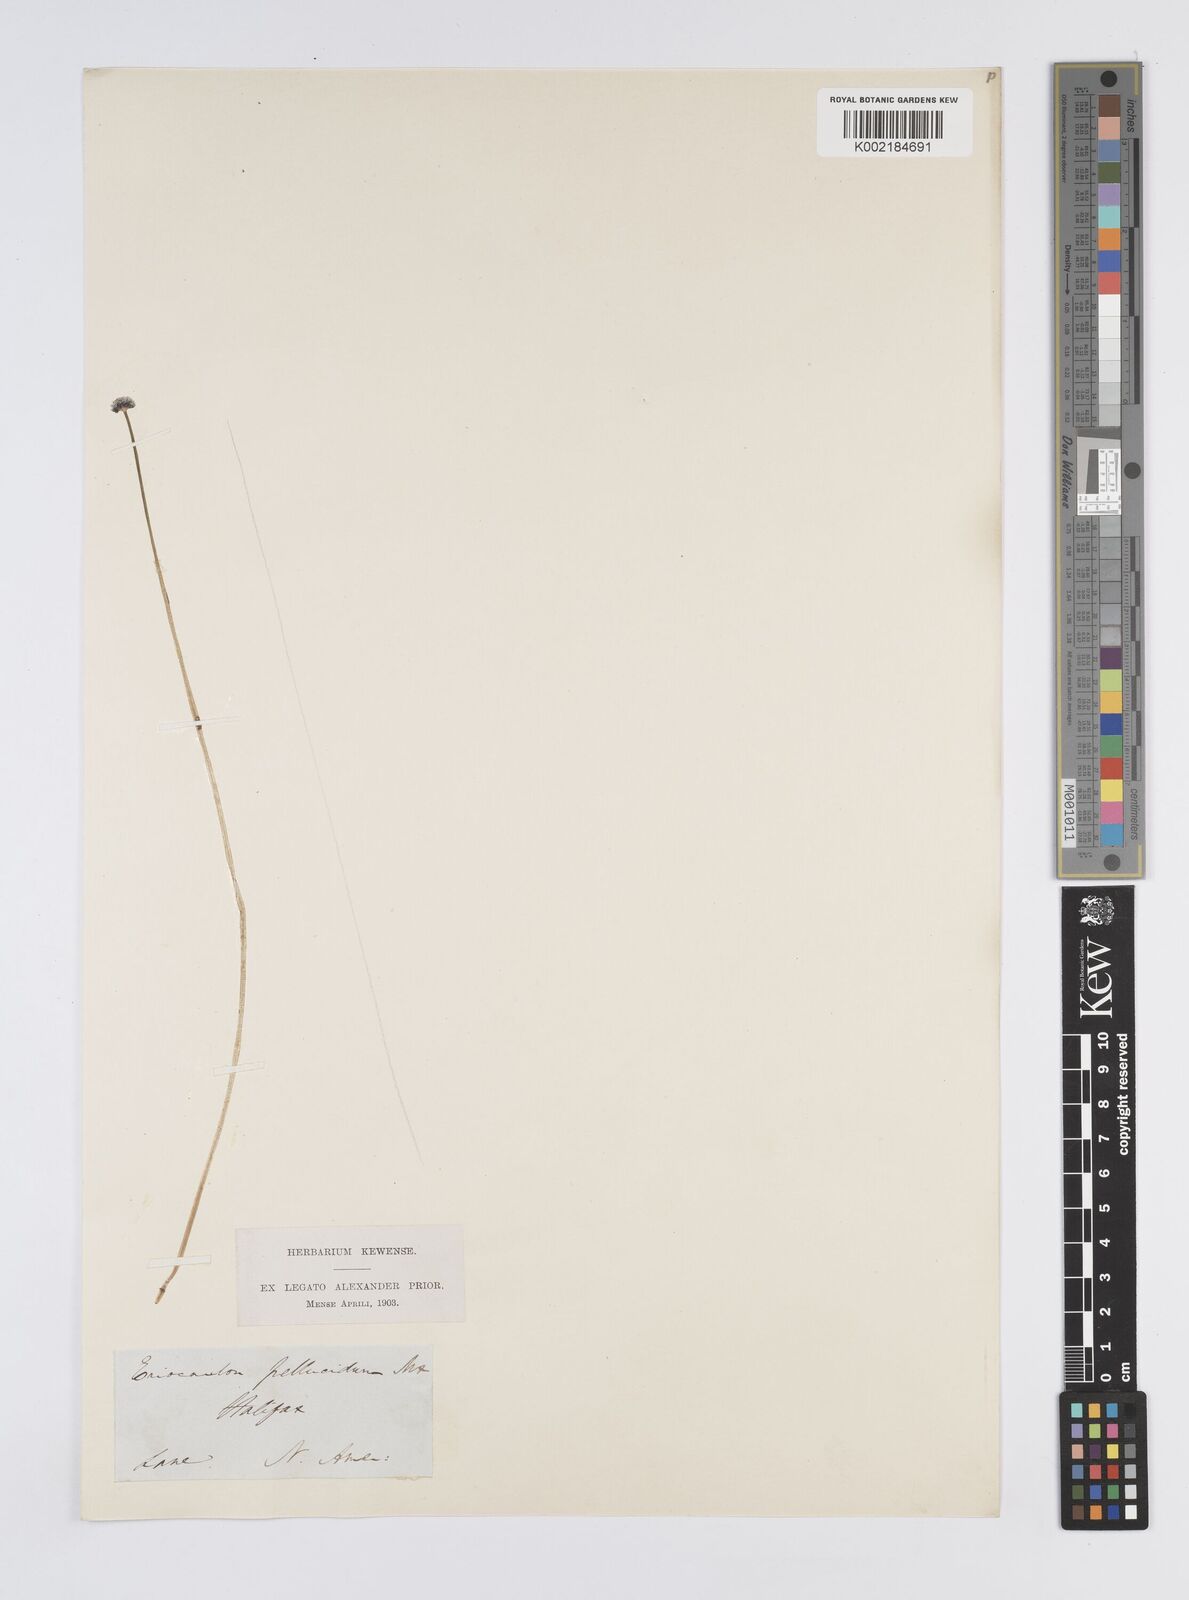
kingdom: Plantae
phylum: Tracheophyta
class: Liliopsida
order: Poales
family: Eriocaulaceae
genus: Eriocaulon
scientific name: Eriocaulon aquaticum
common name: Pipewort
